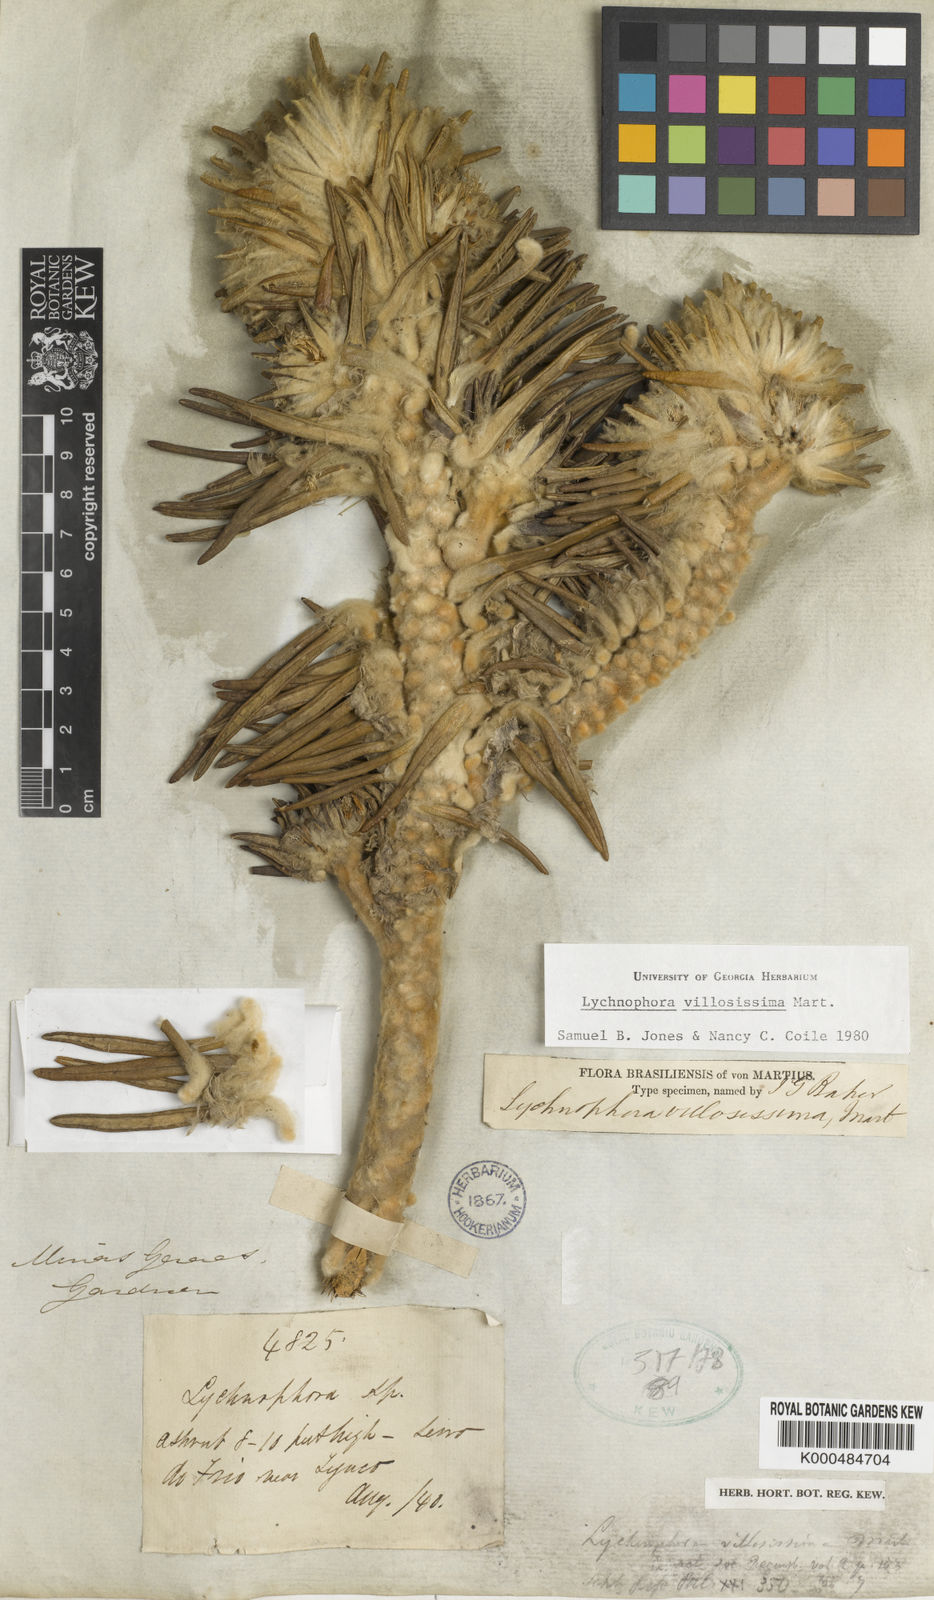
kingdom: Plantae
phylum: Tracheophyta
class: Magnoliopsida
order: Asterales
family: Asteraceae
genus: Lychnophora
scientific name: Lychnophora villosissima
